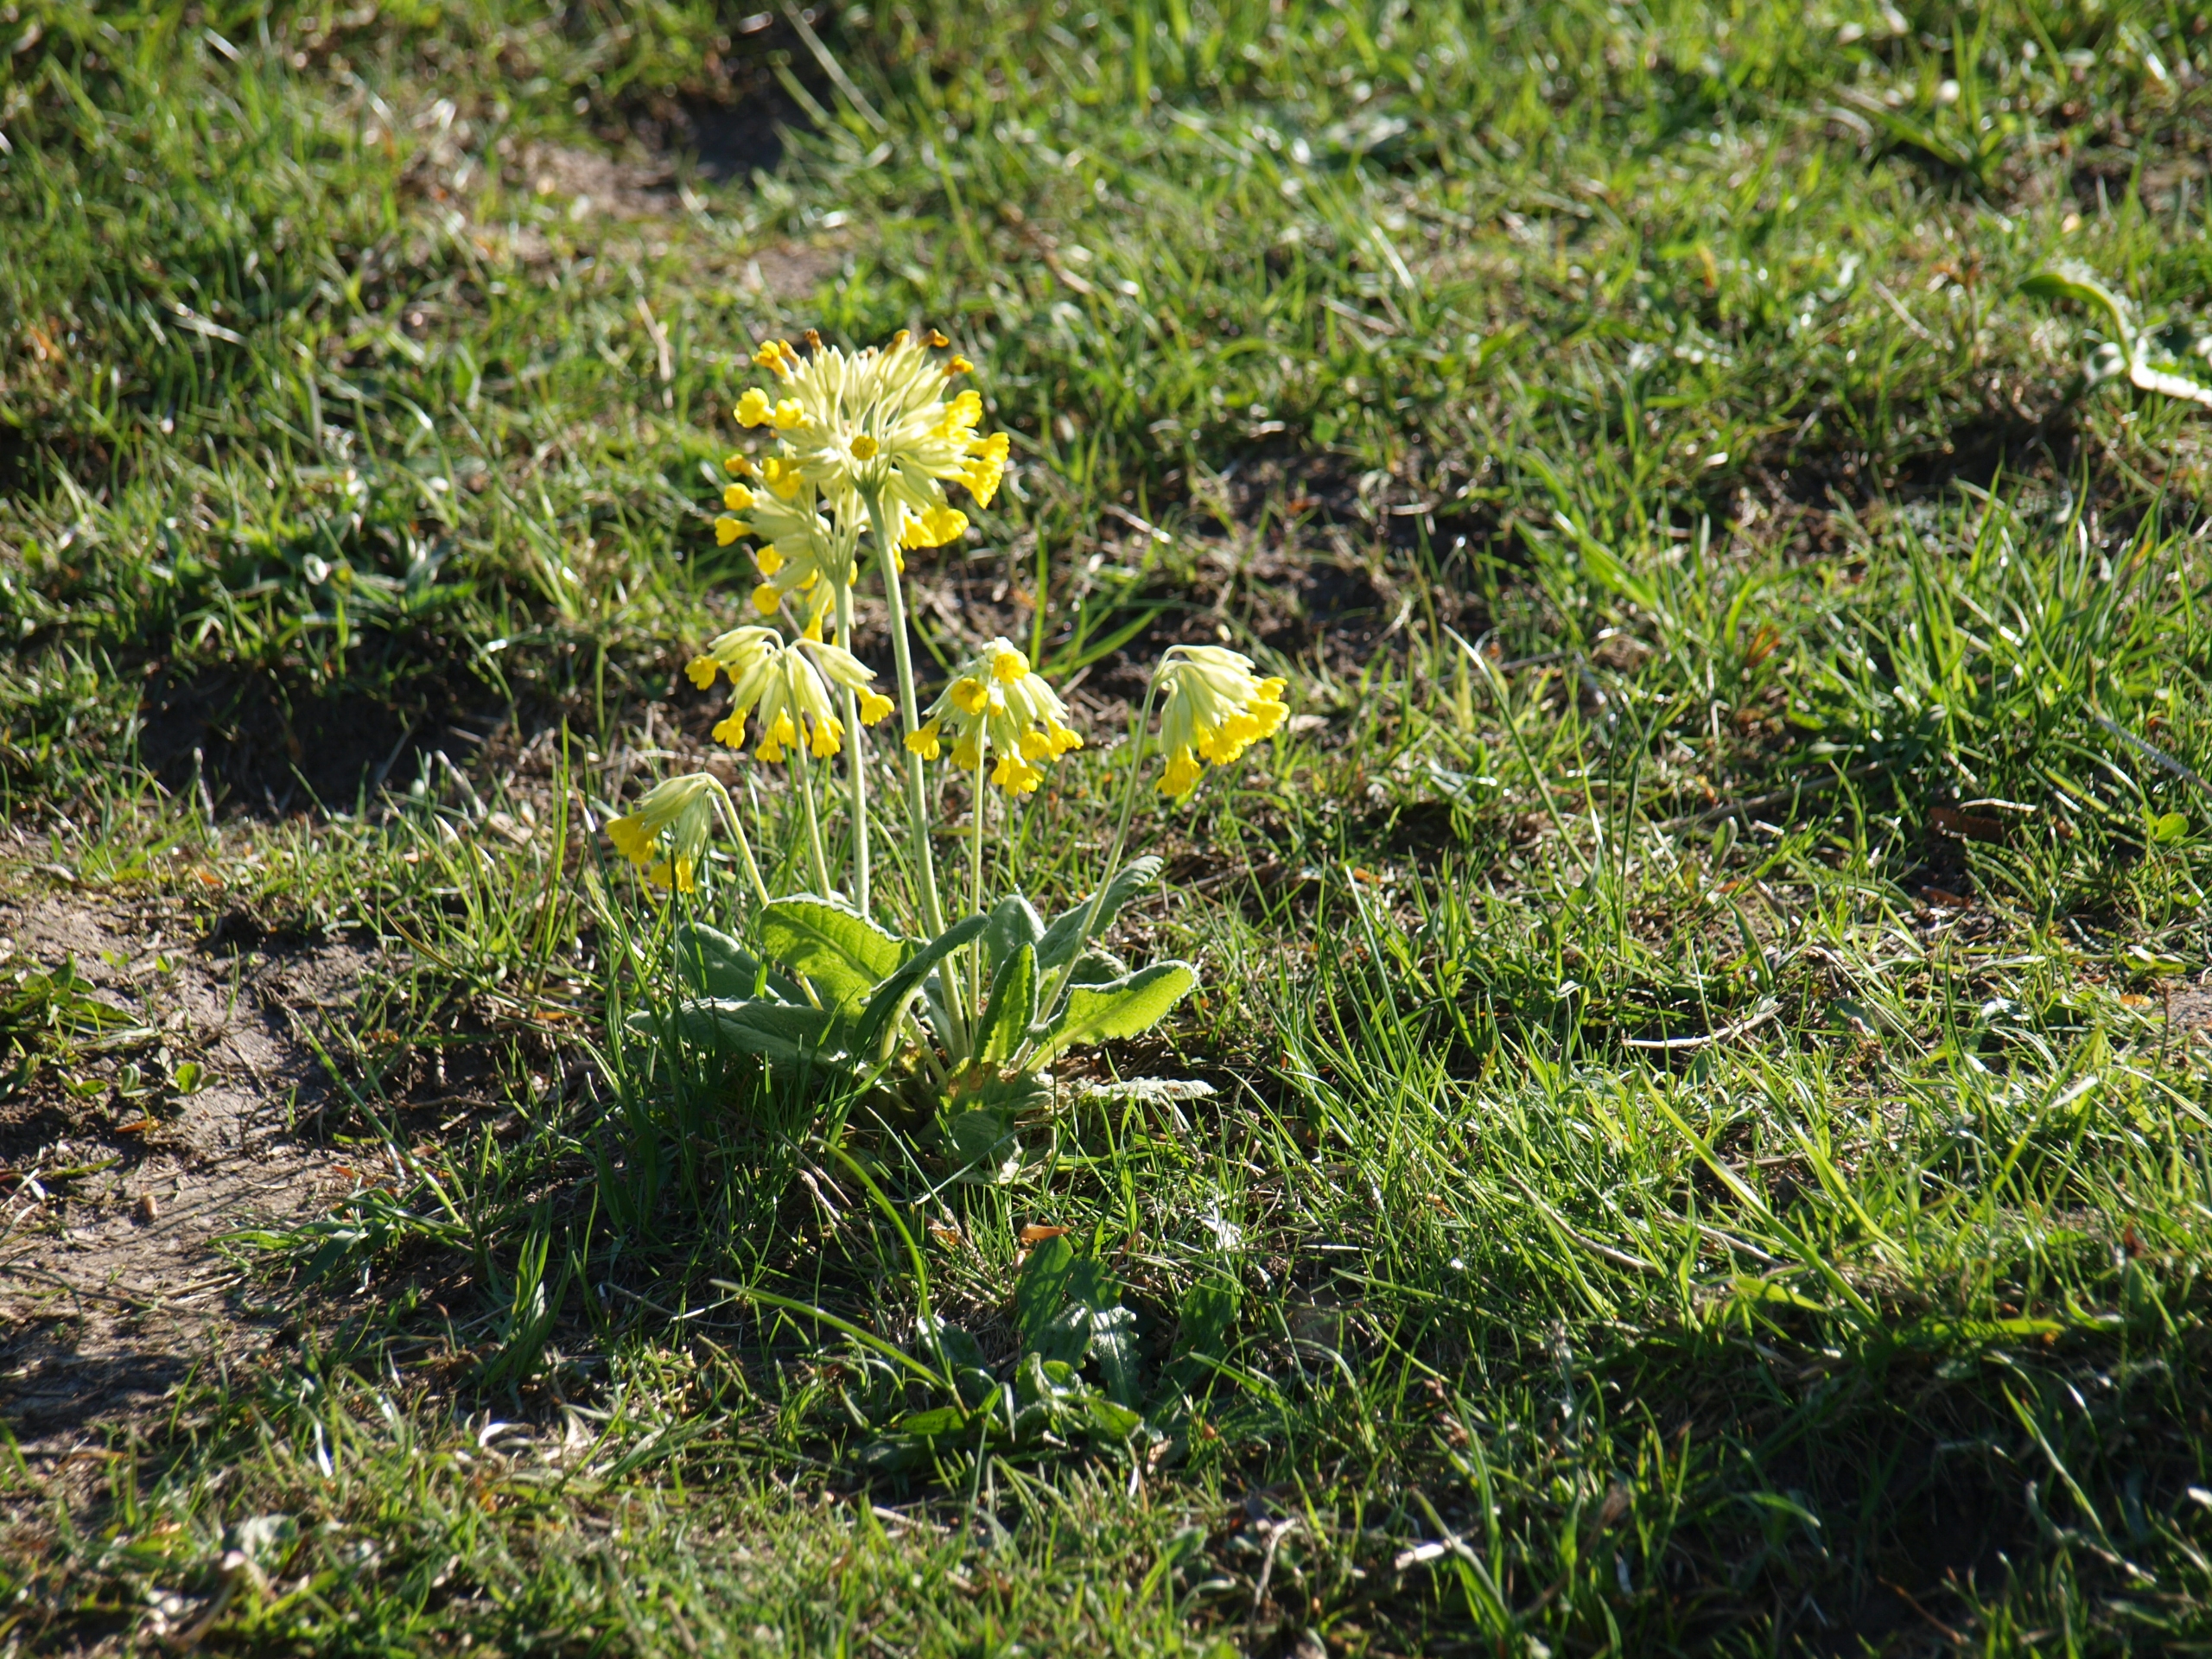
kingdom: Plantae
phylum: Tracheophyta
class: Magnoliopsida
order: Ericales
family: Primulaceae
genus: Primula
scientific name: Primula veris
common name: Hulkravet kodriver
